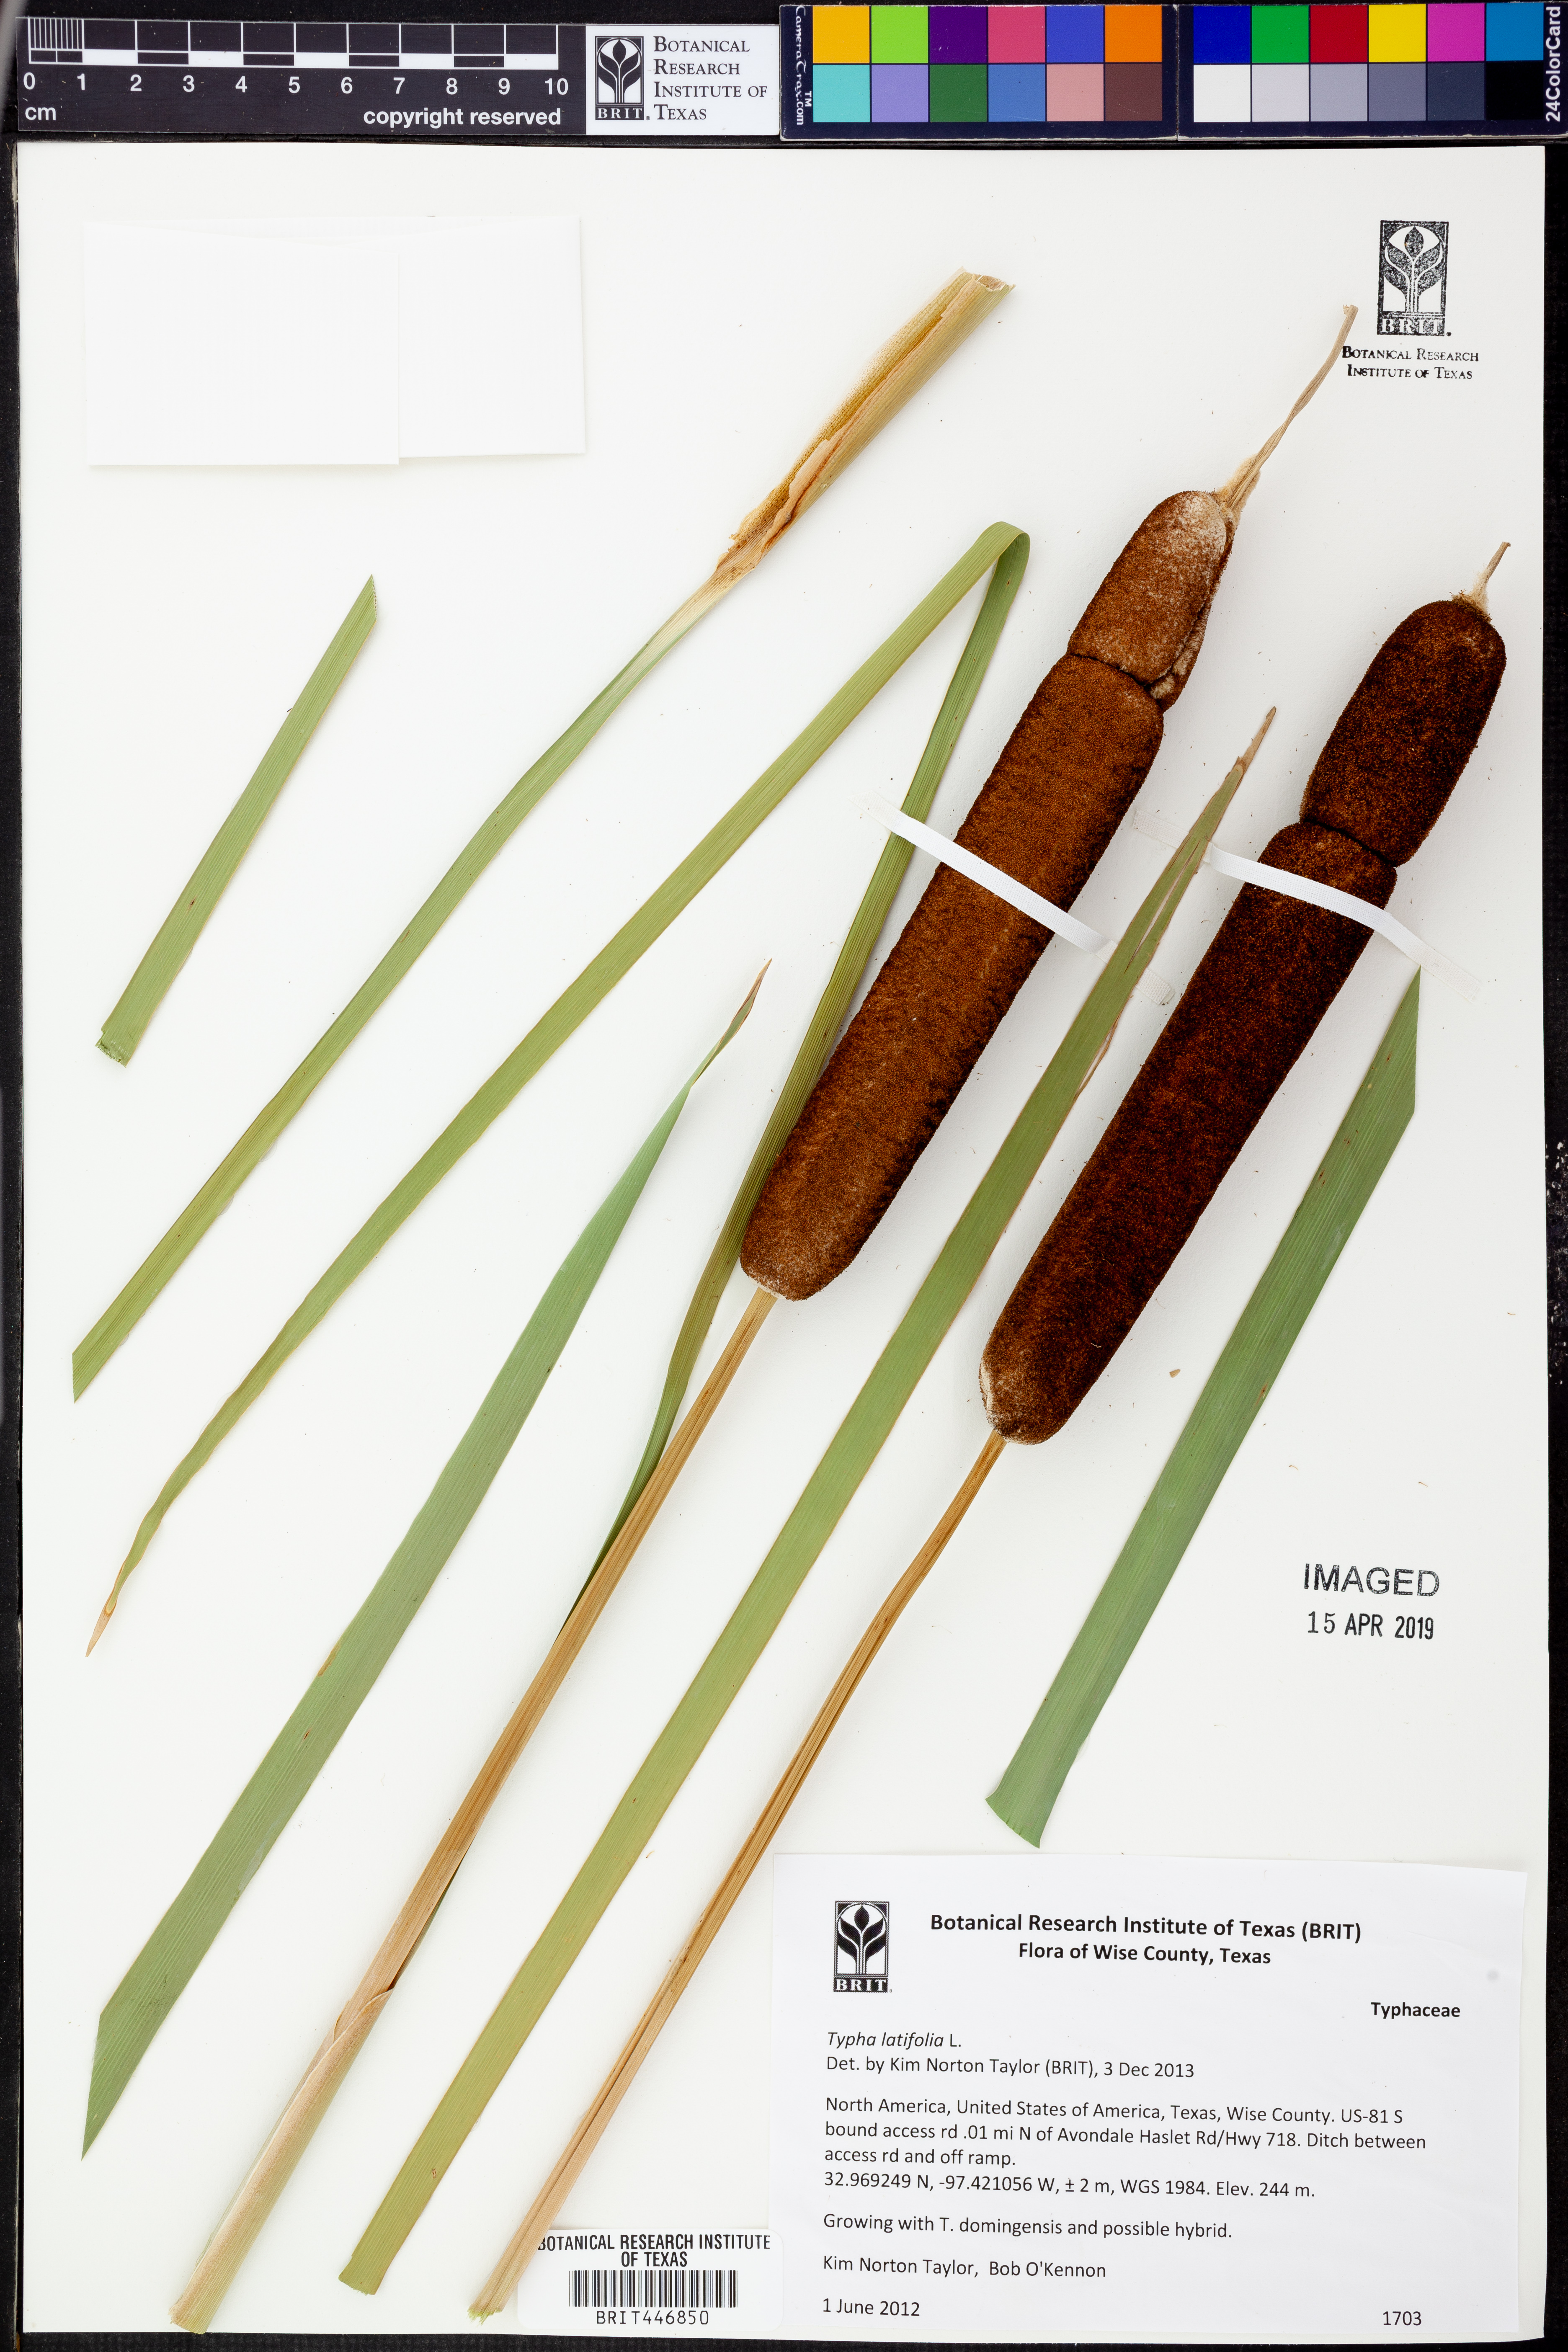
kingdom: Plantae
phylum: Tracheophyta
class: Liliopsida
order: Poales
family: Typhaceae
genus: Typha
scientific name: Typha latifolia
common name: Broadleaf cattail
